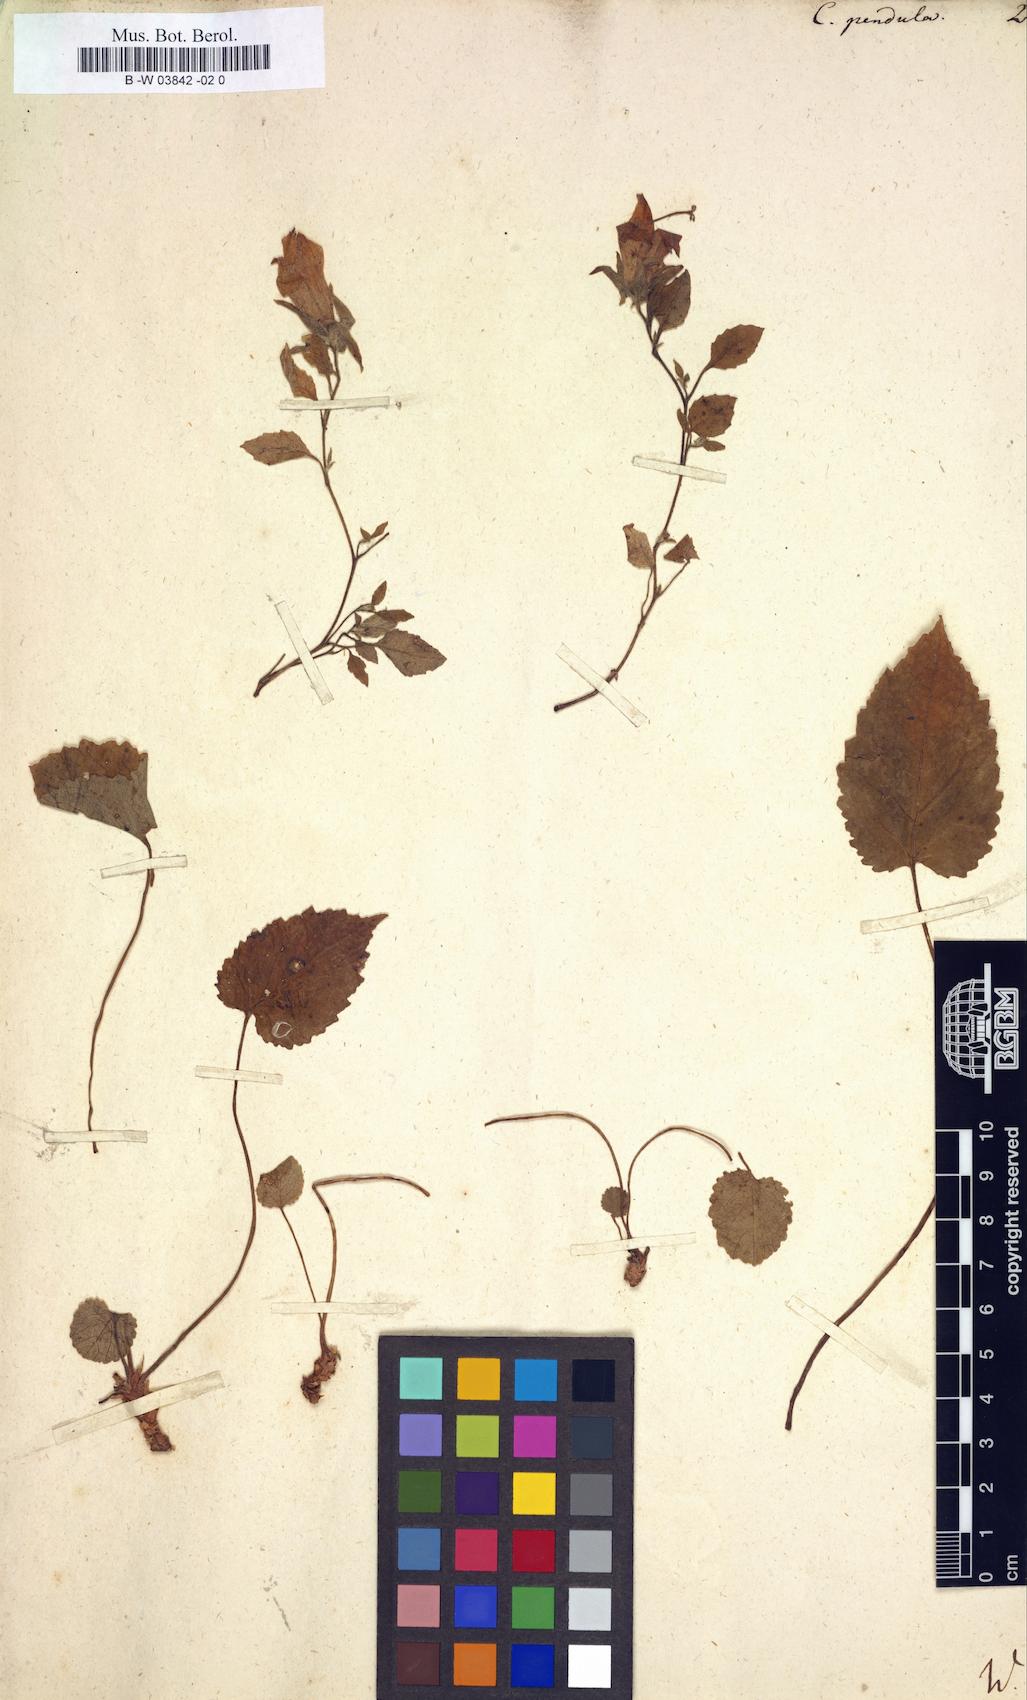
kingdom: Plantae
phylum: Tracheophyta
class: Magnoliopsida
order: Asterales
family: Campanulaceae
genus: Campanula
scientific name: Campanula pendula
